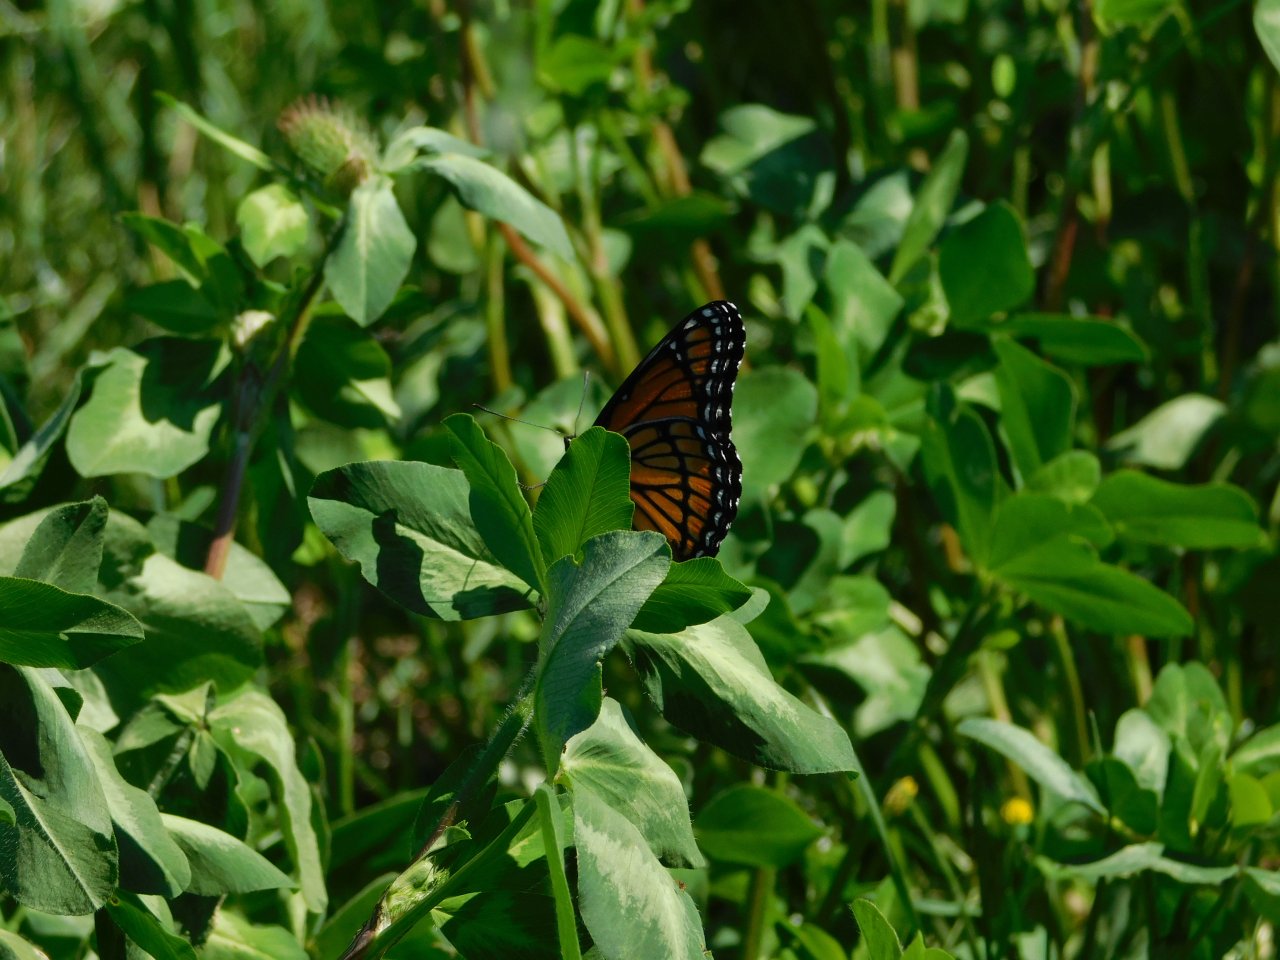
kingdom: Animalia
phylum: Arthropoda
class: Insecta
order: Lepidoptera
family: Nymphalidae
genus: Limenitis
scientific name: Limenitis archippus
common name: Viceroy
